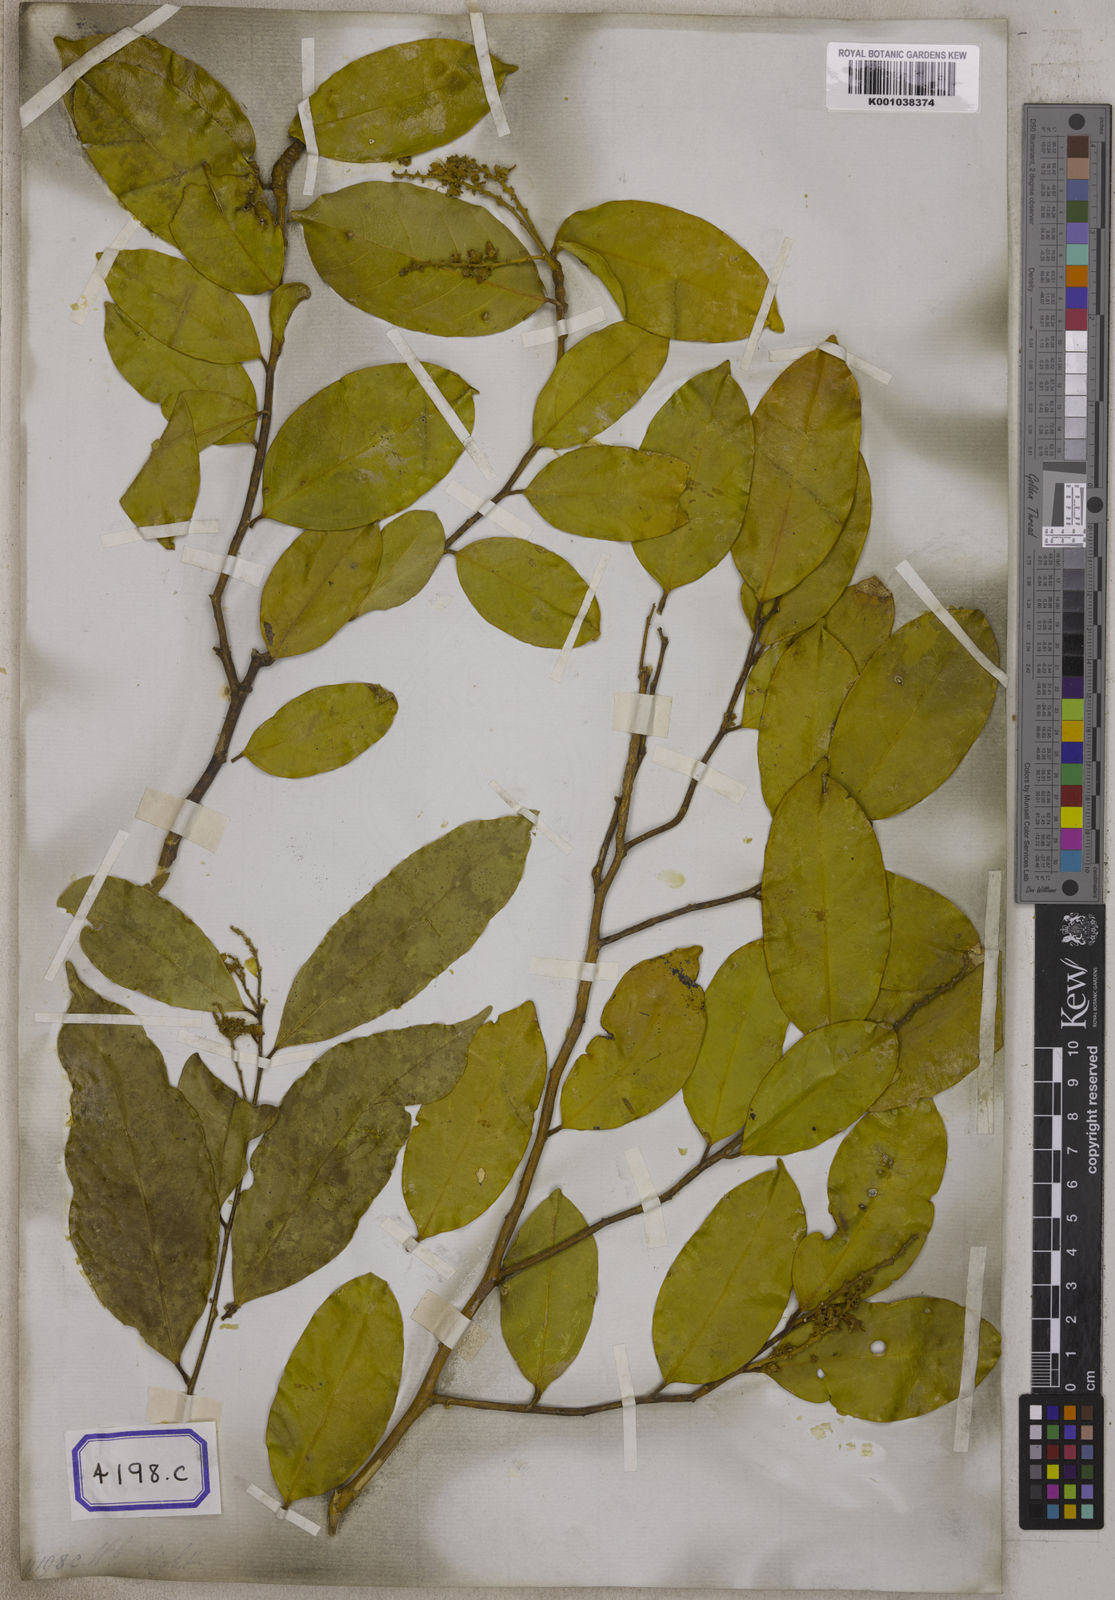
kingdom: Plantae
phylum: Tracheophyta
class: Magnoliopsida
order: Fabales
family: Polygalaceae
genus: Xanthophyllum
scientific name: Xanthophyllum flavescens
